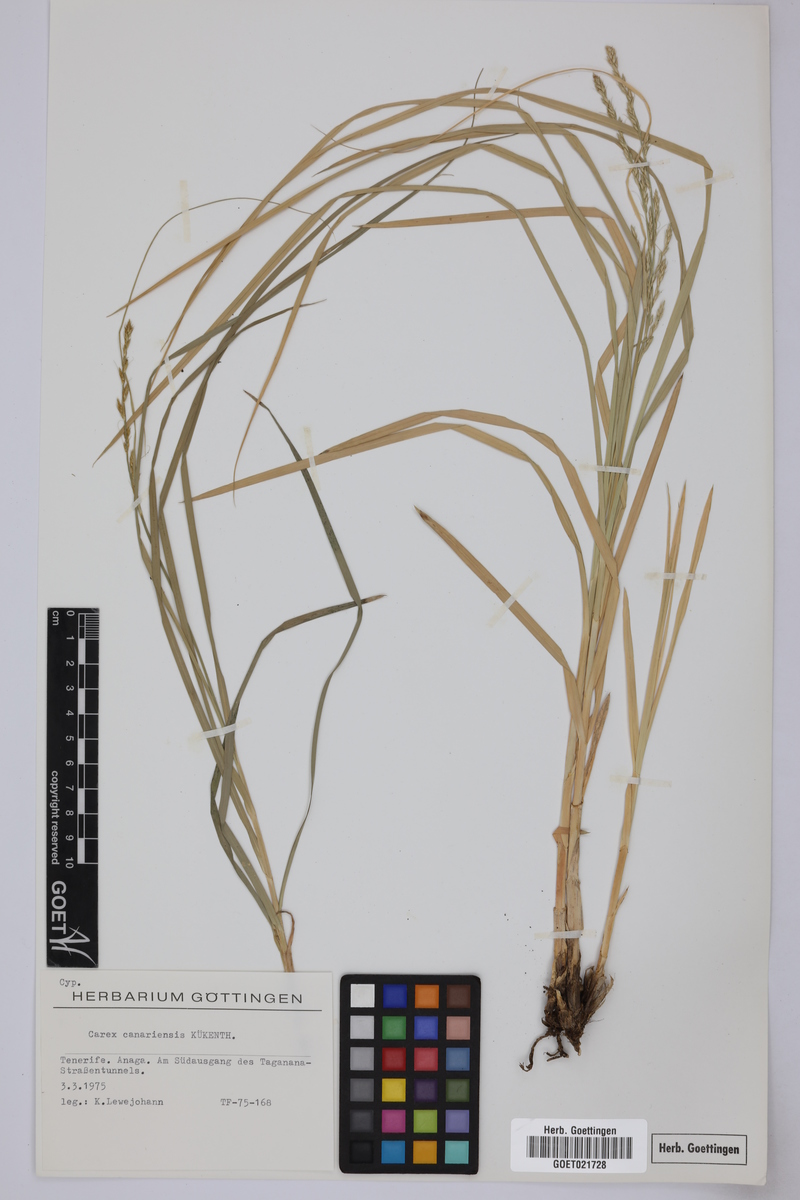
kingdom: Plantae
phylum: Tracheophyta
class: Liliopsida
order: Poales
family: Cyperaceae
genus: Carex
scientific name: Carex canariensis
